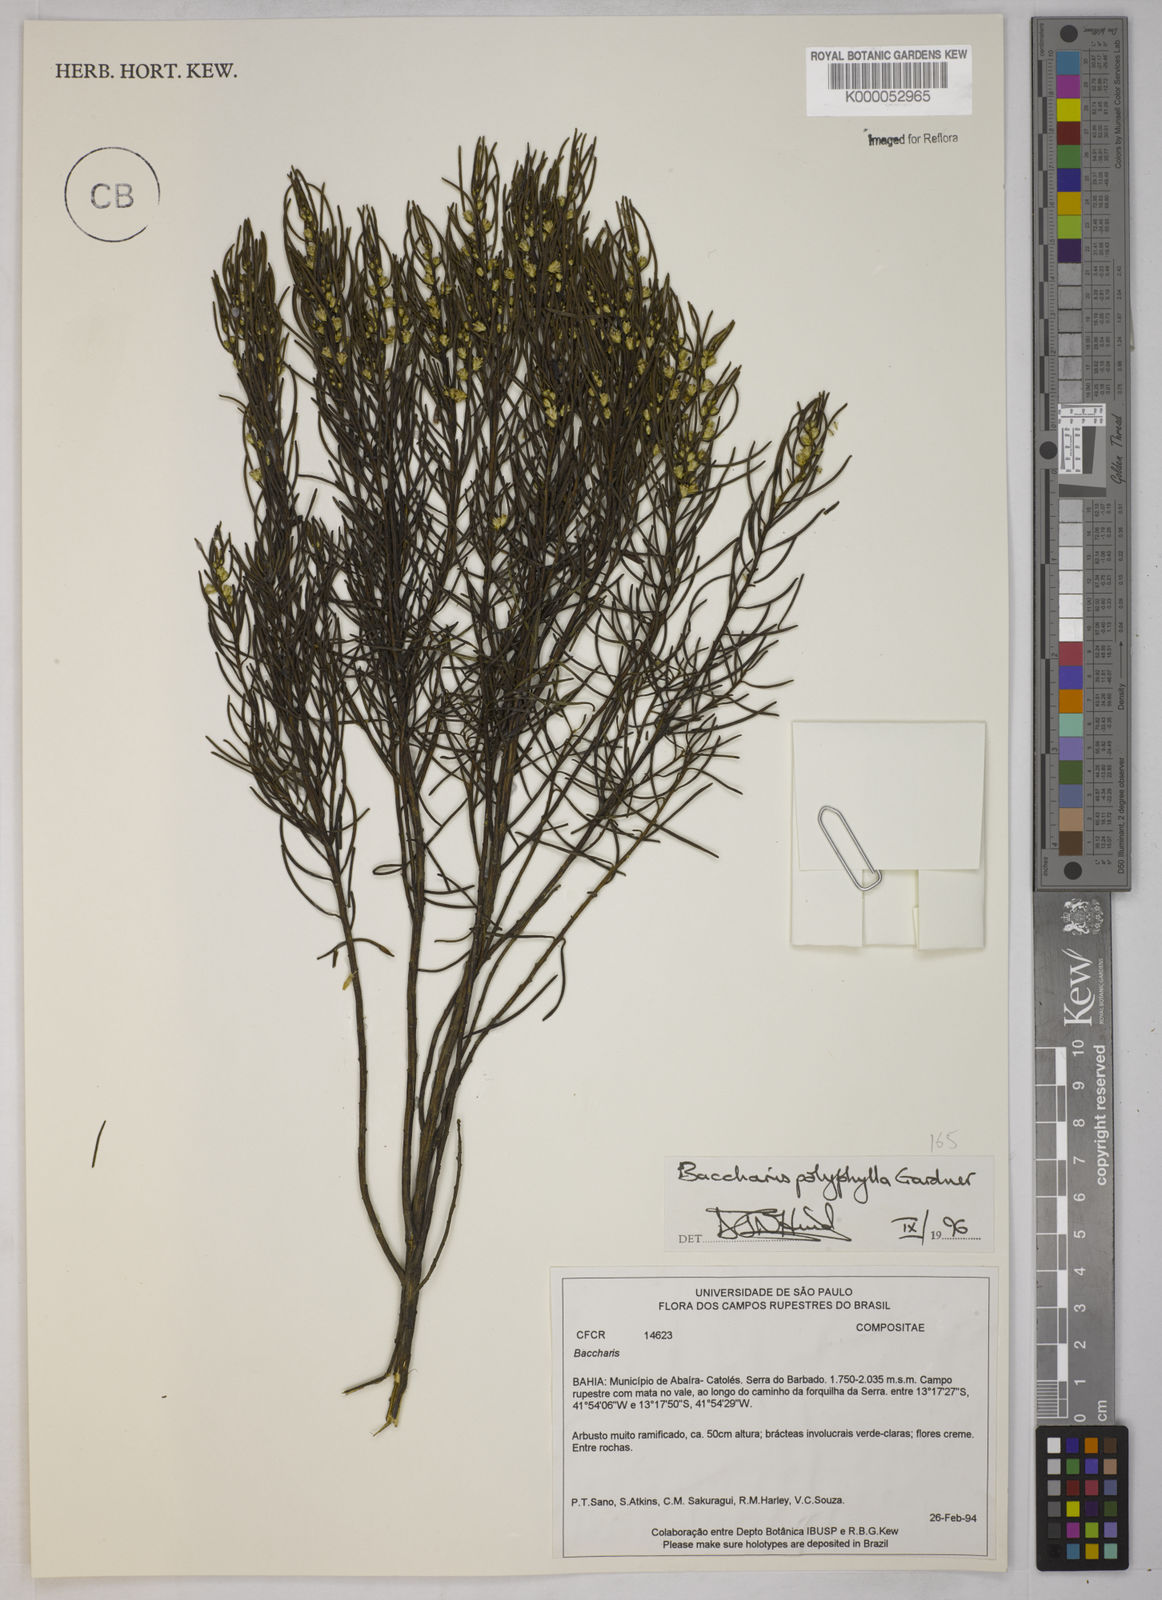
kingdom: Plantae
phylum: Tracheophyta
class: Magnoliopsida
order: Asterales
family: Asteraceae
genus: Baccharis
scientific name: Baccharis polyphylla
